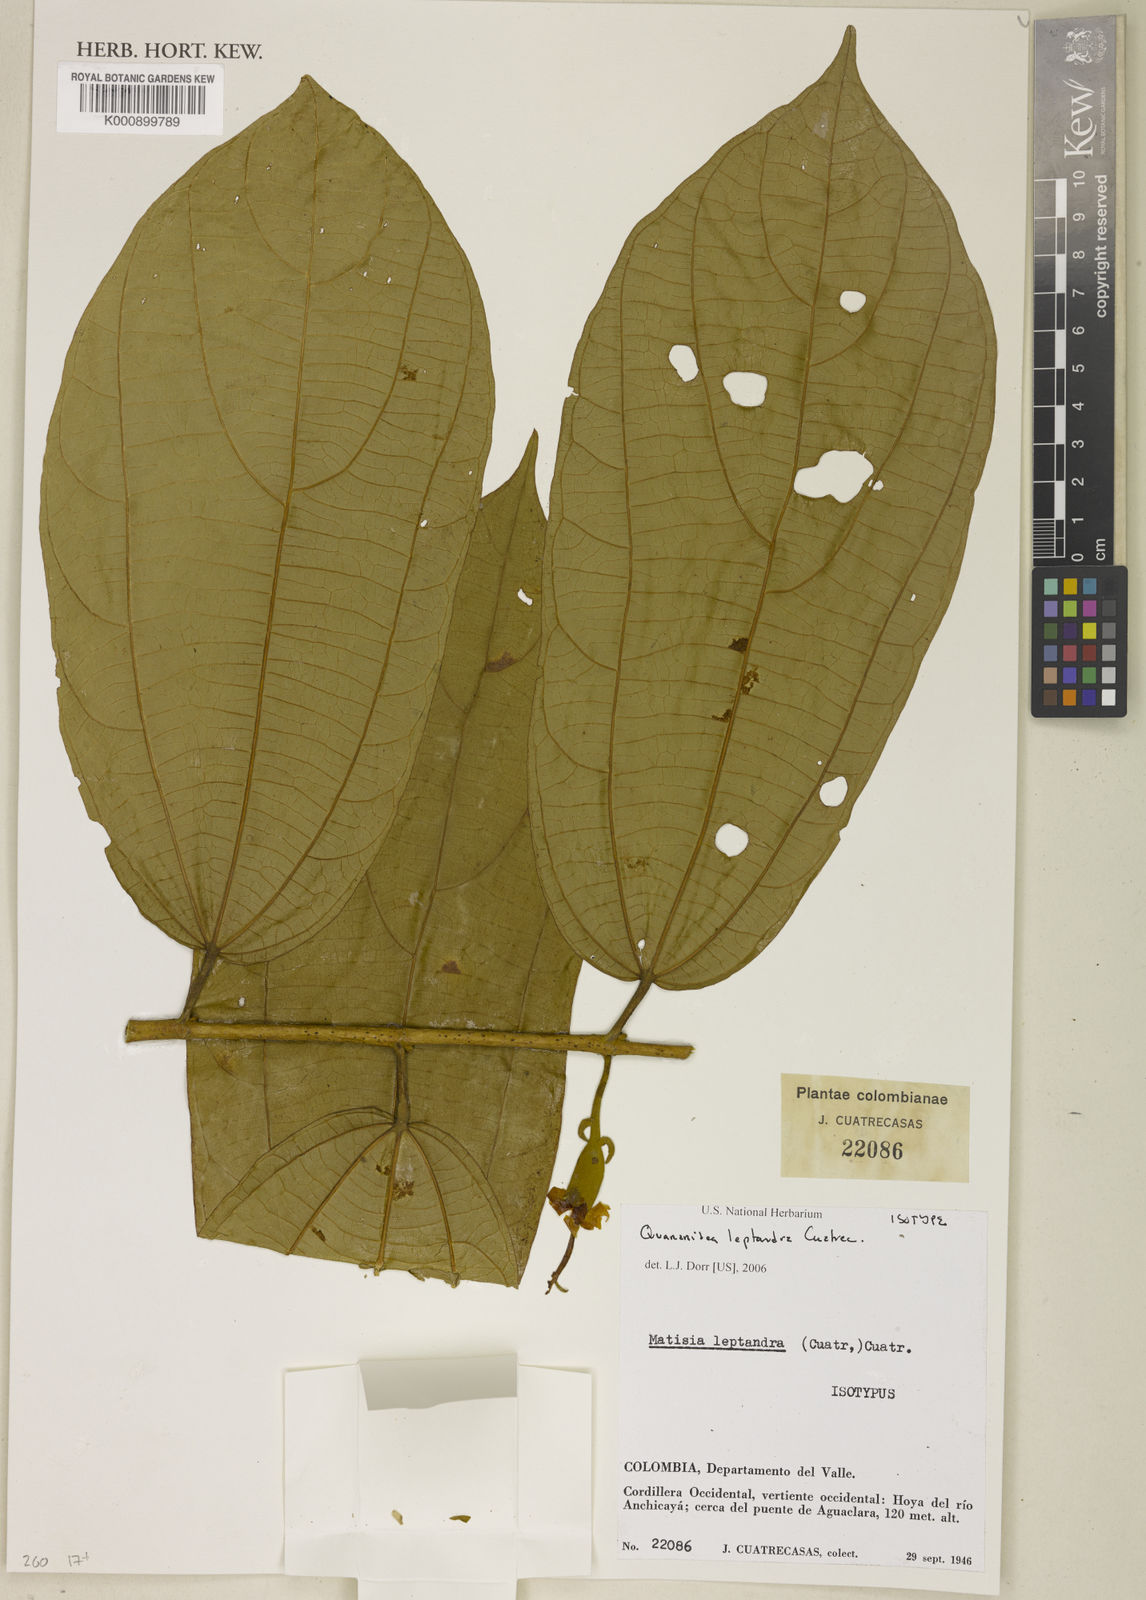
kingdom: Plantae
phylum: Tracheophyta
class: Magnoliopsida
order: Malvales
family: Malvaceae
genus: Matisia
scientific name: Matisia leptandra
